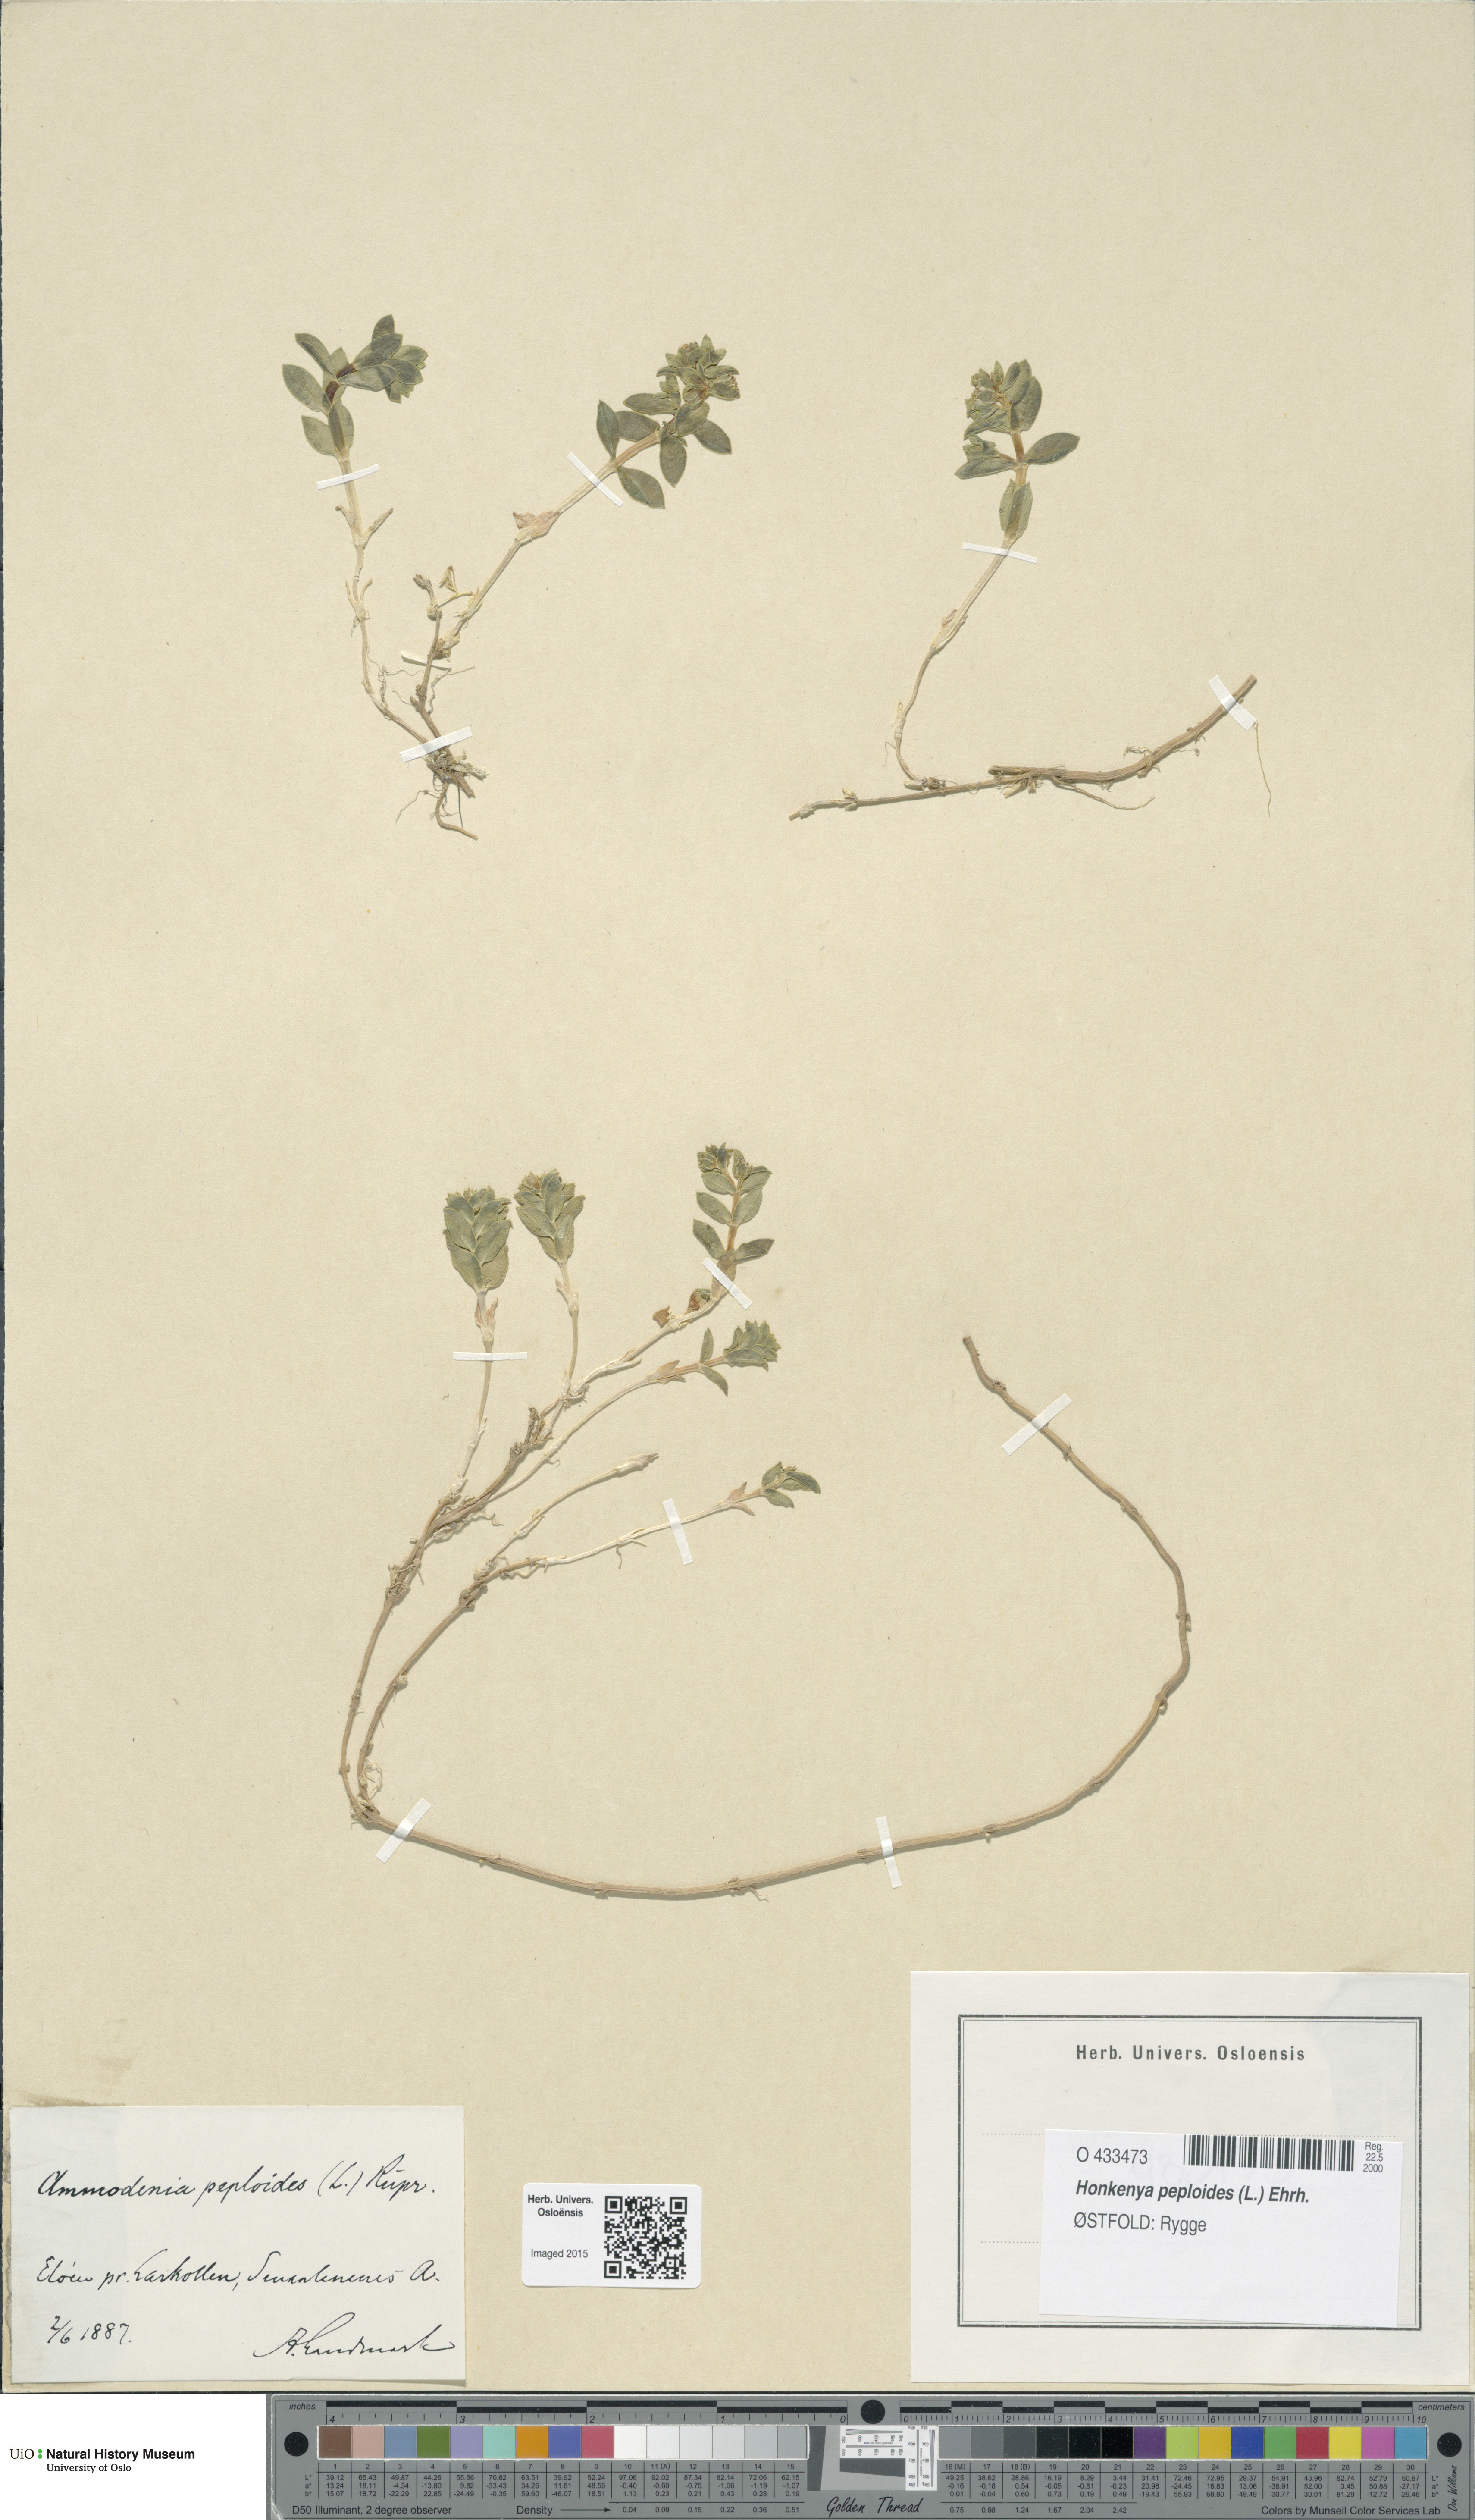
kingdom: Plantae
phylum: Tracheophyta
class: Magnoliopsida
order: Caryophyllales
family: Caryophyllaceae
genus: Honckenya
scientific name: Honckenya peploides
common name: Sea sandwort
